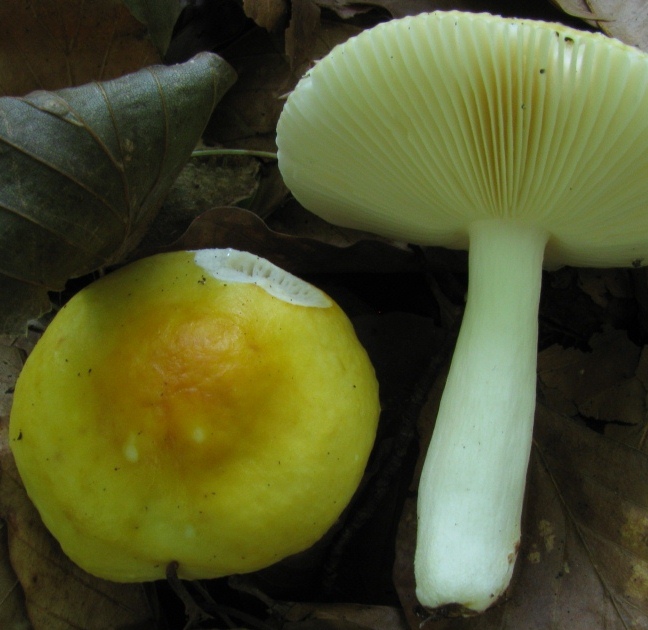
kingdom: Fungi
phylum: Basidiomycota
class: Agaricomycetes
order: Russulales
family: Russulaceae
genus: Russula
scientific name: Russula solaris
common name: sol-skørhat
